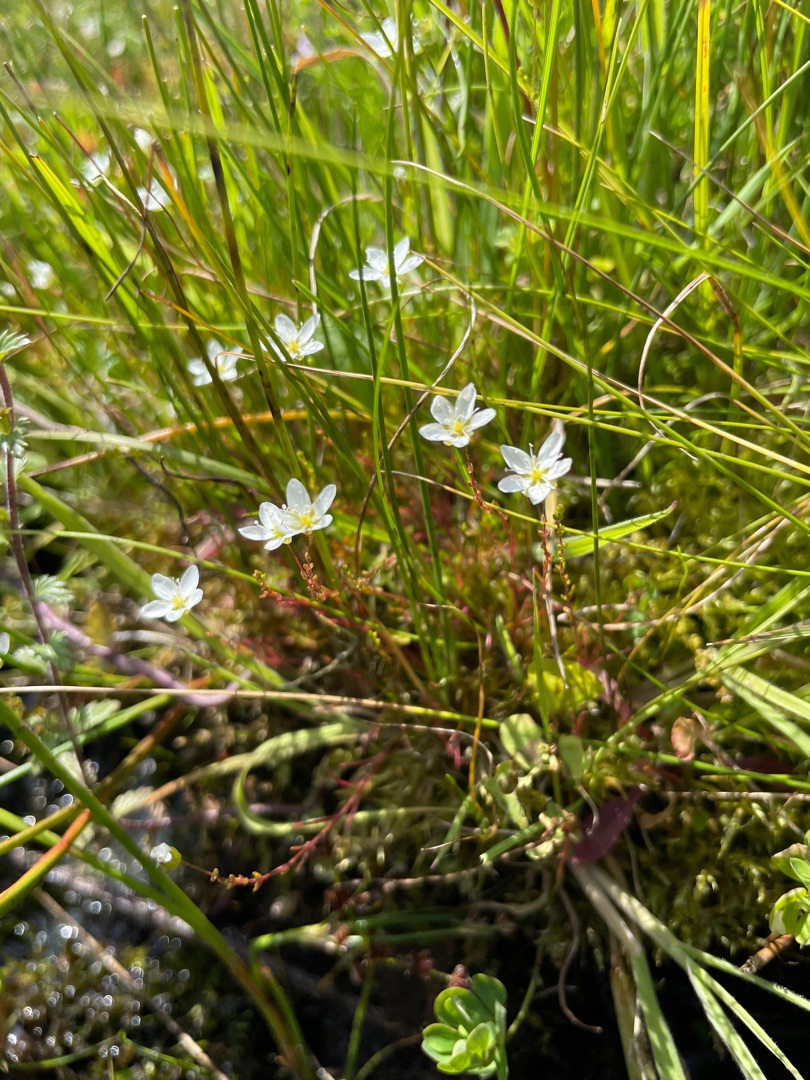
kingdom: Plantae
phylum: Tracheophyta
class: Magnoliopsida
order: Caryophyllales
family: Caryophyllaceae
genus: Sagina
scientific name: Sagina nodosa
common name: Knude-firling
